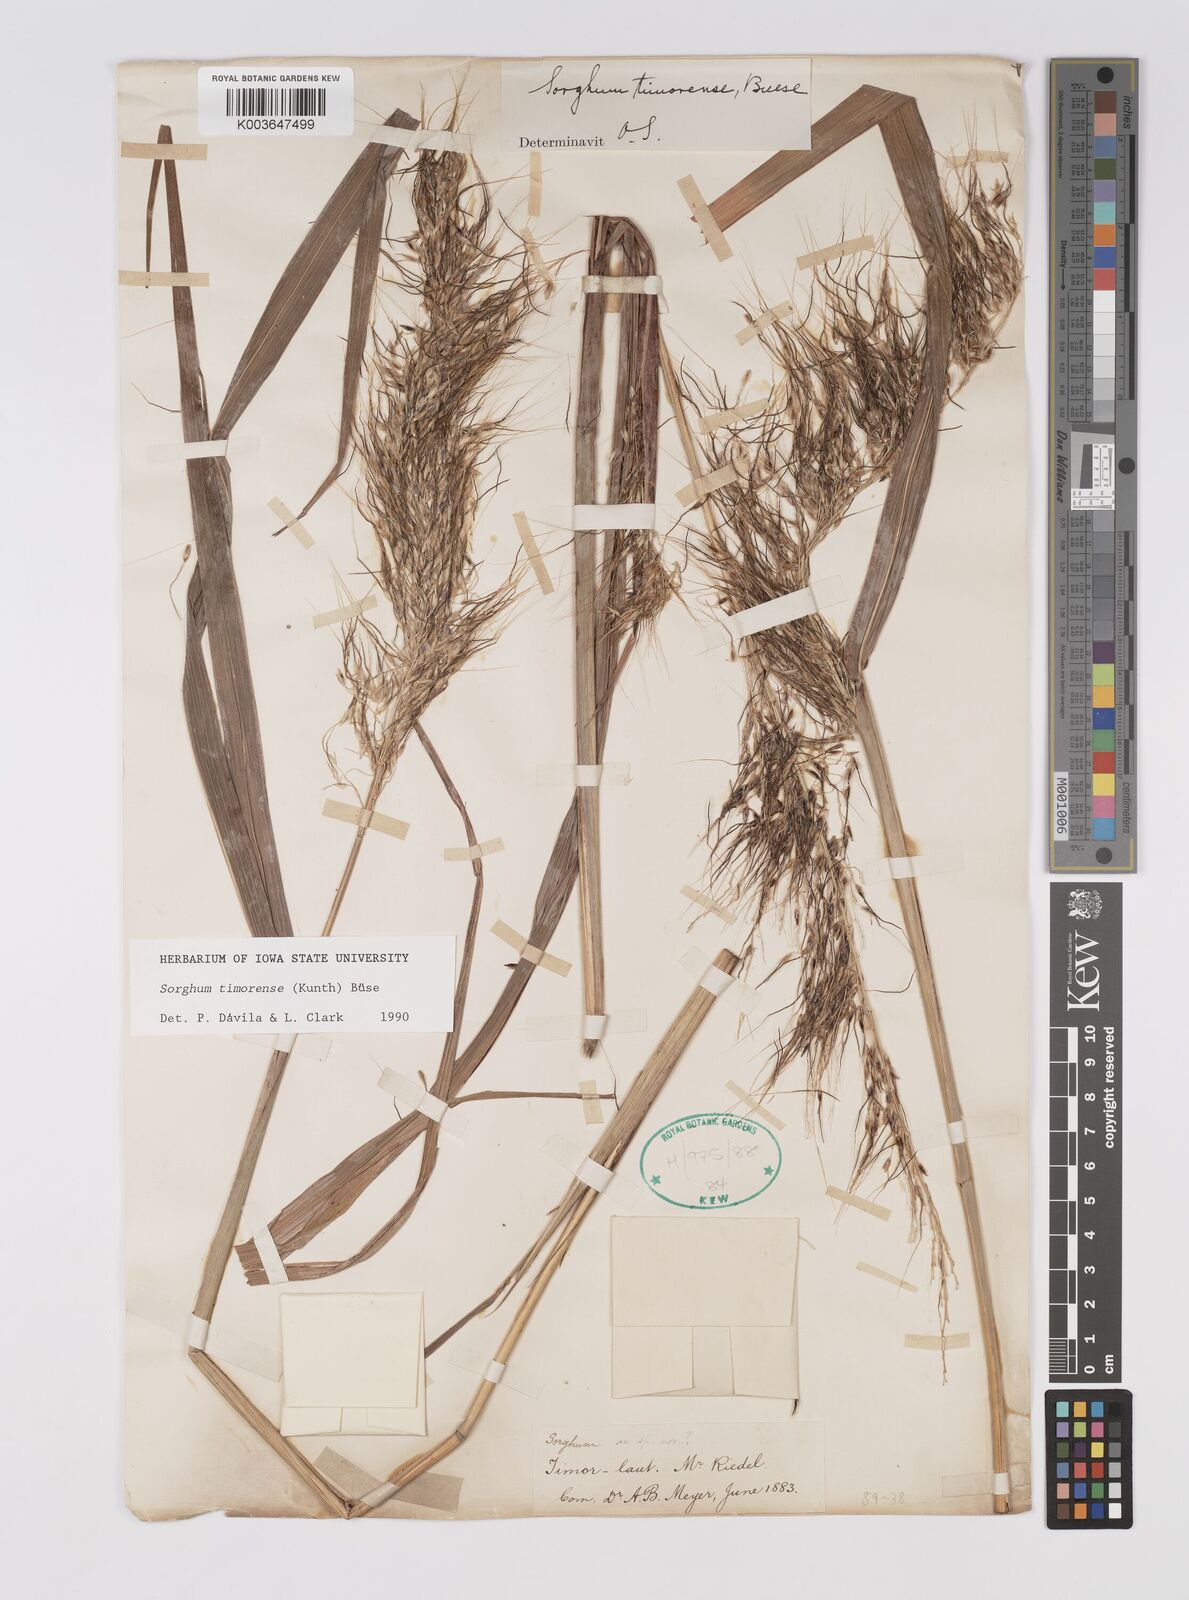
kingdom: Plantae
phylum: Tracheophyta
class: Liliopsida
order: Poales
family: Poaceae
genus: Sarga
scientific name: Sarga timorensis
